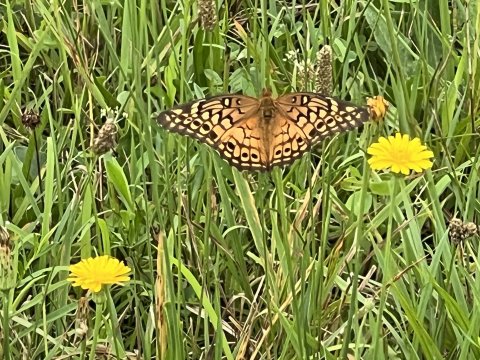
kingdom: Animalia
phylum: Arthropoda
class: Insecta
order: Lepidoptera
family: Nymphalidae
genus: Euptoieta
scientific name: Euptoieta claudia
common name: Variegated Fritillary
